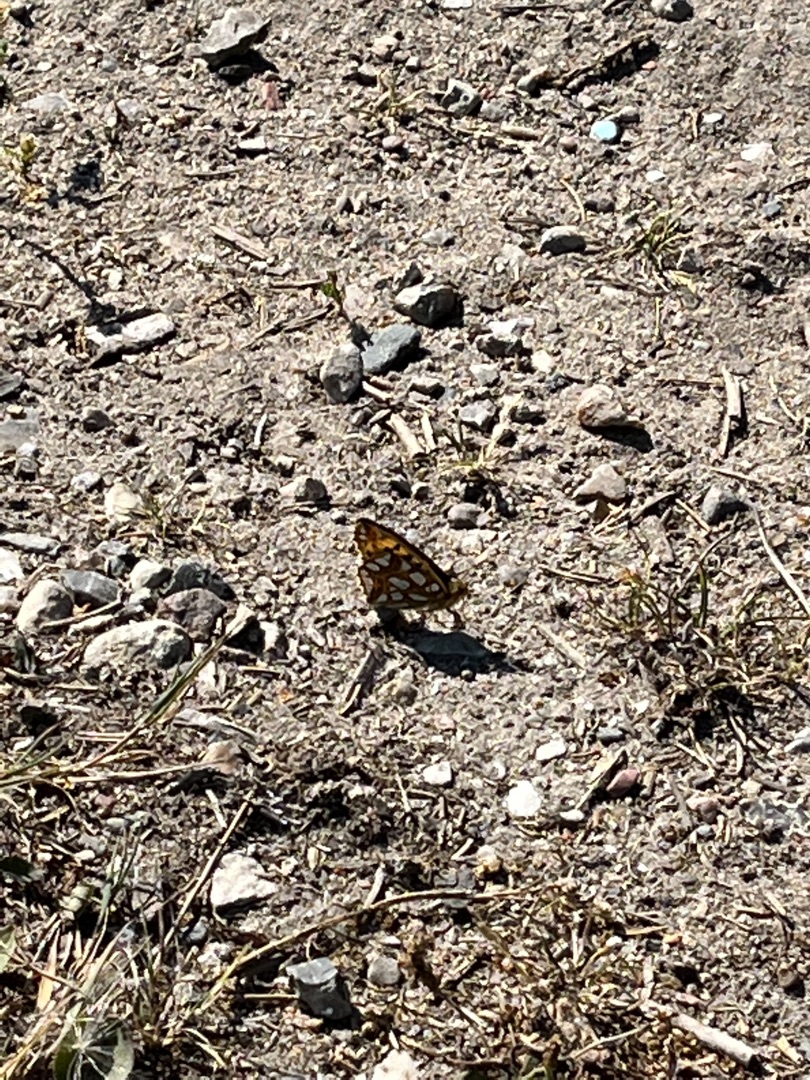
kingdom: Animalia
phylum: Arthropoda
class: Insecta
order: Lepidoptera
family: Nymphalidae
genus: Issoria
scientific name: Issoria lathonia
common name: Storplettet perlemorsommerfugl
